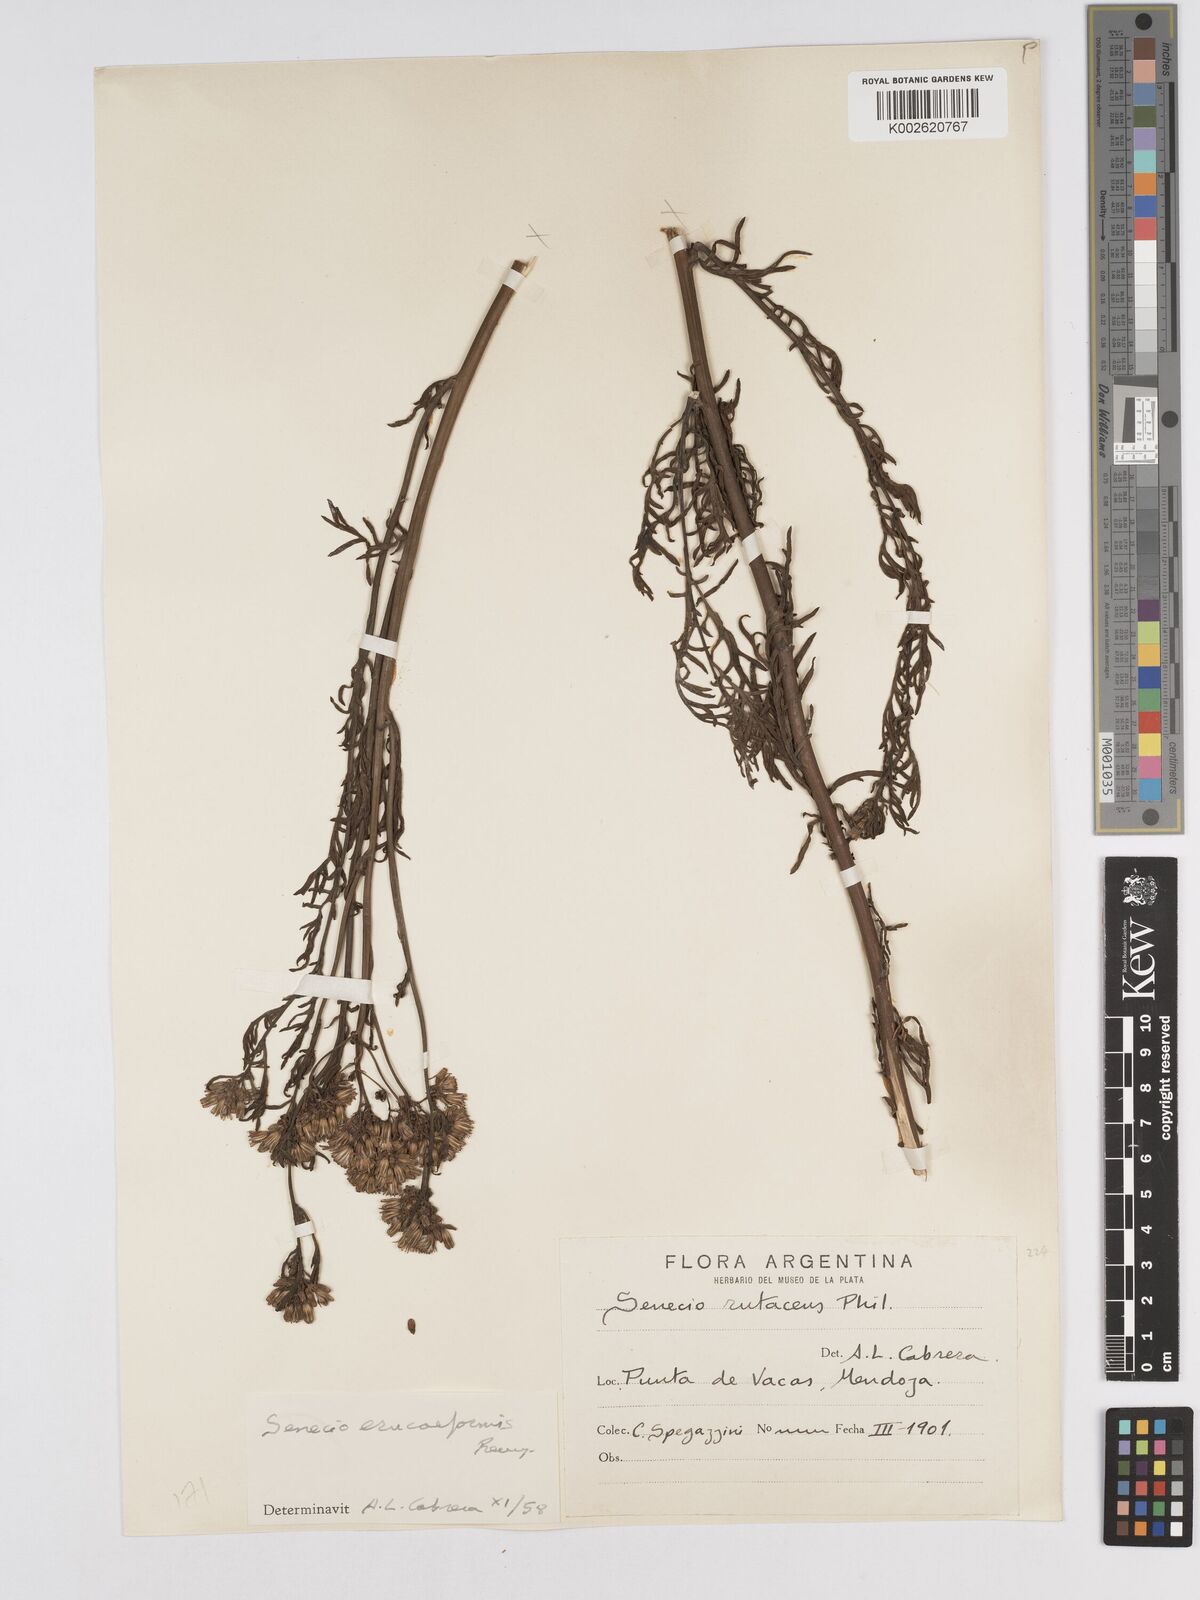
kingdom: Plantae
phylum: Tracheophyta
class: Magnoliopsida
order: Asterales
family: Asteraceae
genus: Senecio
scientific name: Senecio eruciformis
